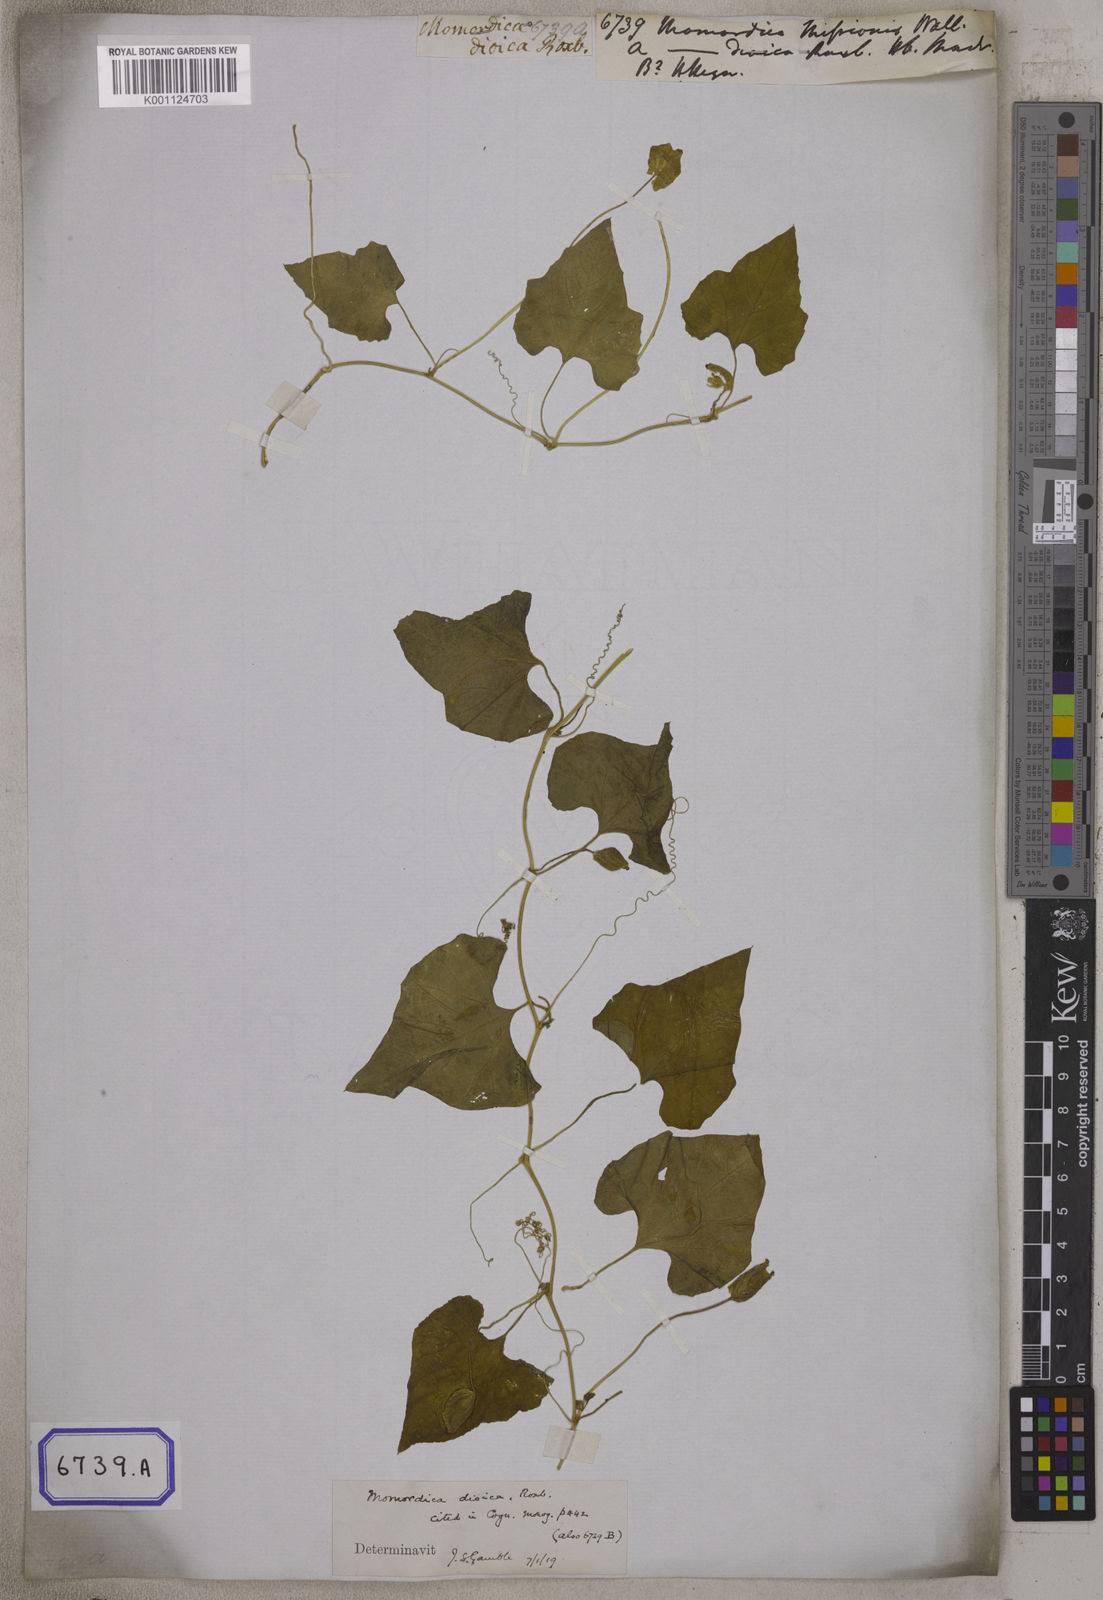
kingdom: Plantae
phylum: Tracheophyta
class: Magnoliopsida
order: Cucurbitales
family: Cucurbitaceae
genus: Momordica
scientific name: Momordica dioica
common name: Spine gourd
